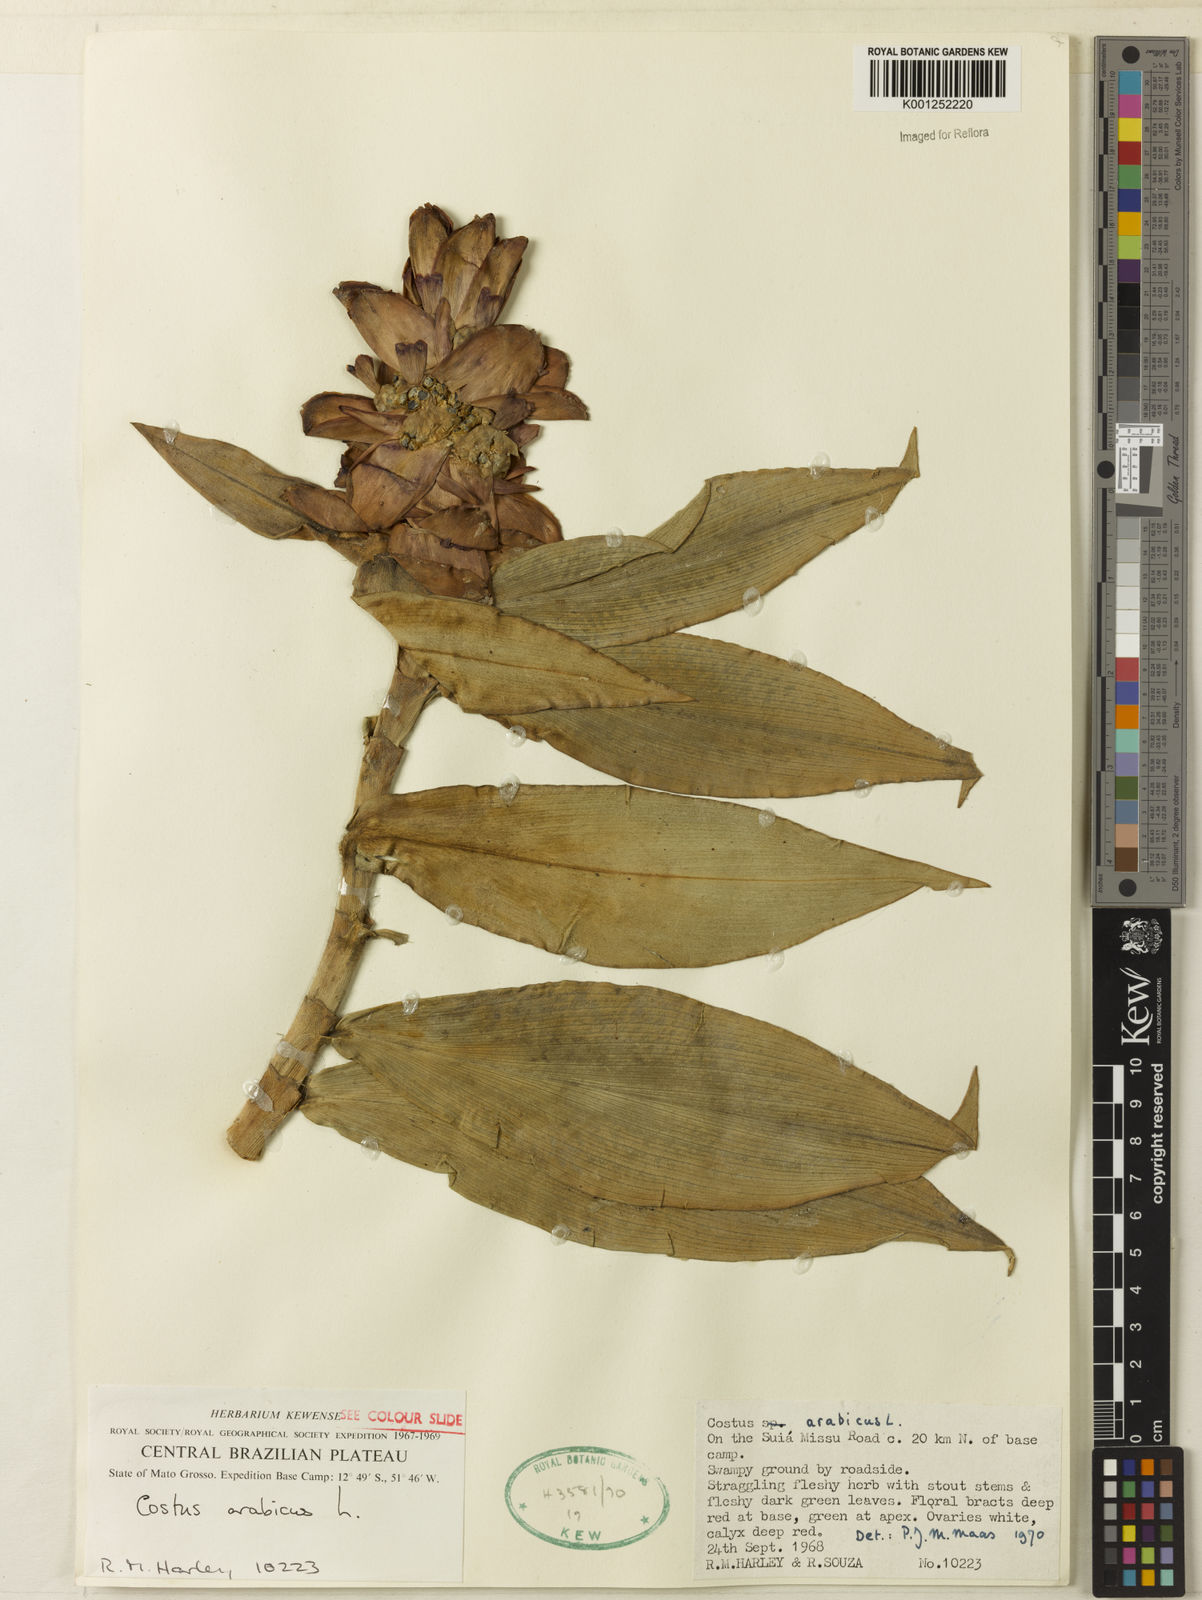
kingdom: Plantae
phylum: Tracheophyta
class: Liliopsida
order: Zingiberales
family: Costaceae
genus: Costus
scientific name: Costus arabicus
